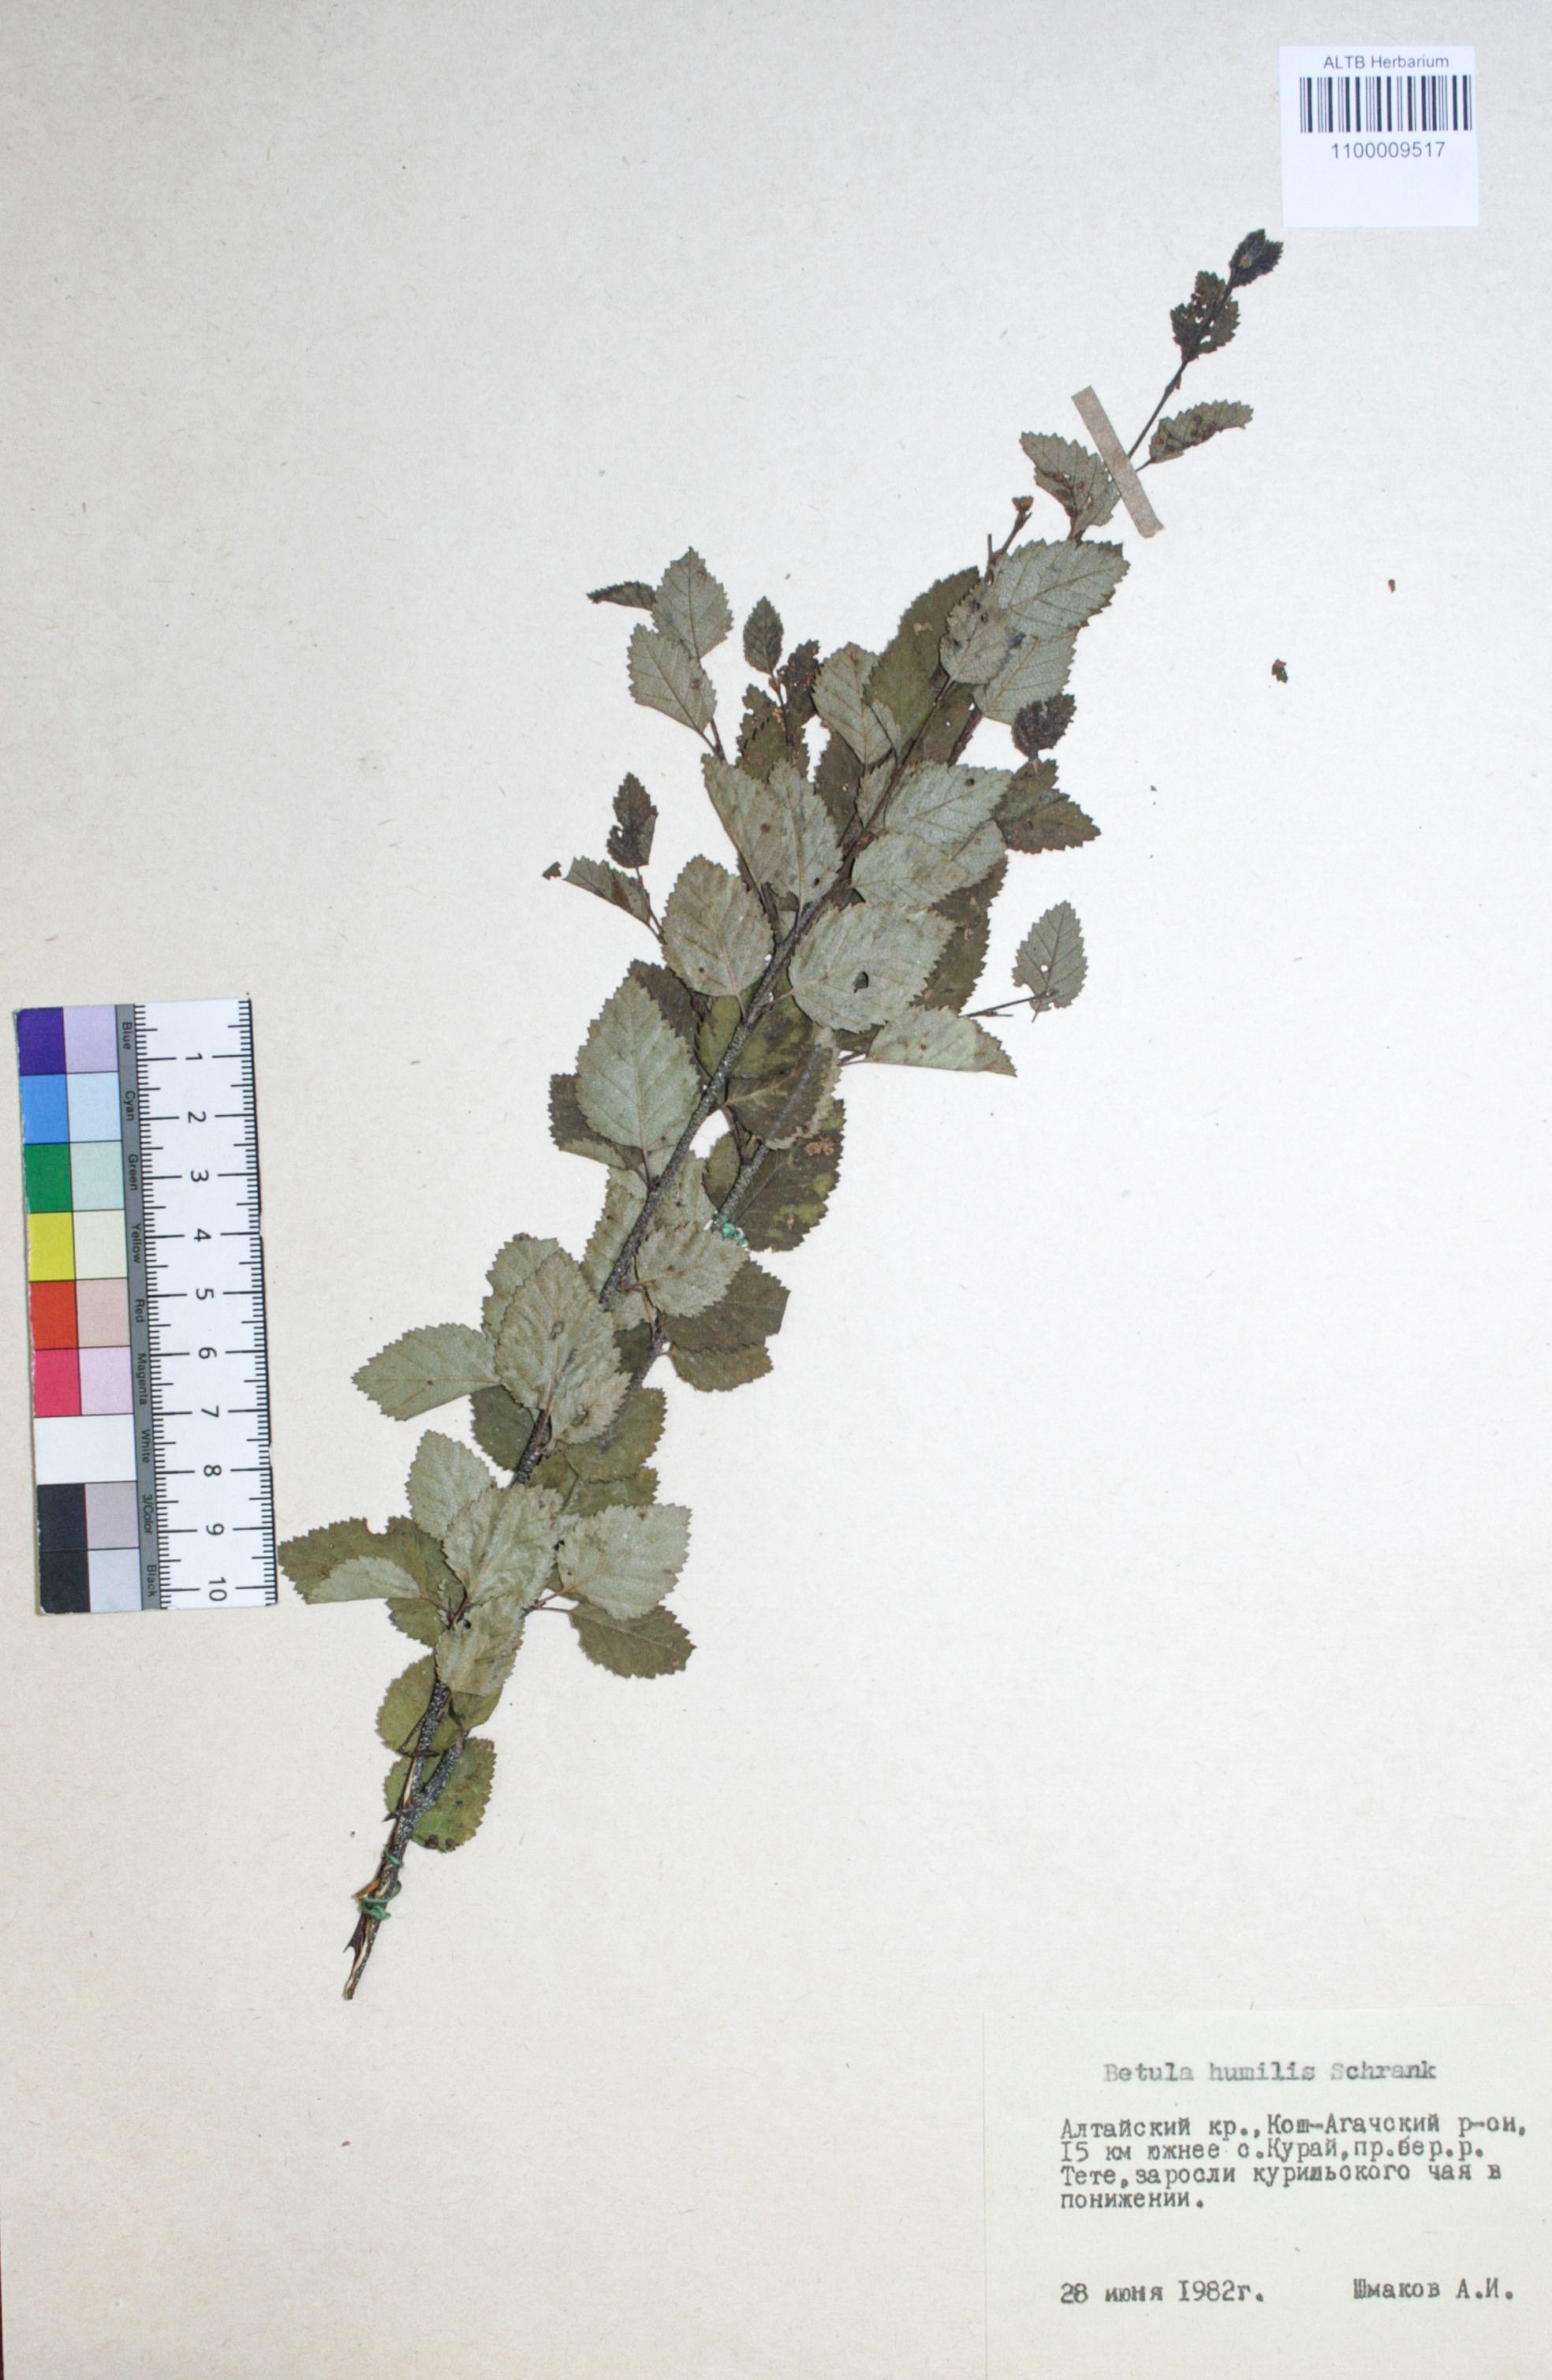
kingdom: Plantae
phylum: Tracheophyta
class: Magnoliopsida
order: Fagales
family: Betulaceae
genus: Betula
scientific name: Betula humilis
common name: Shrubby birch
